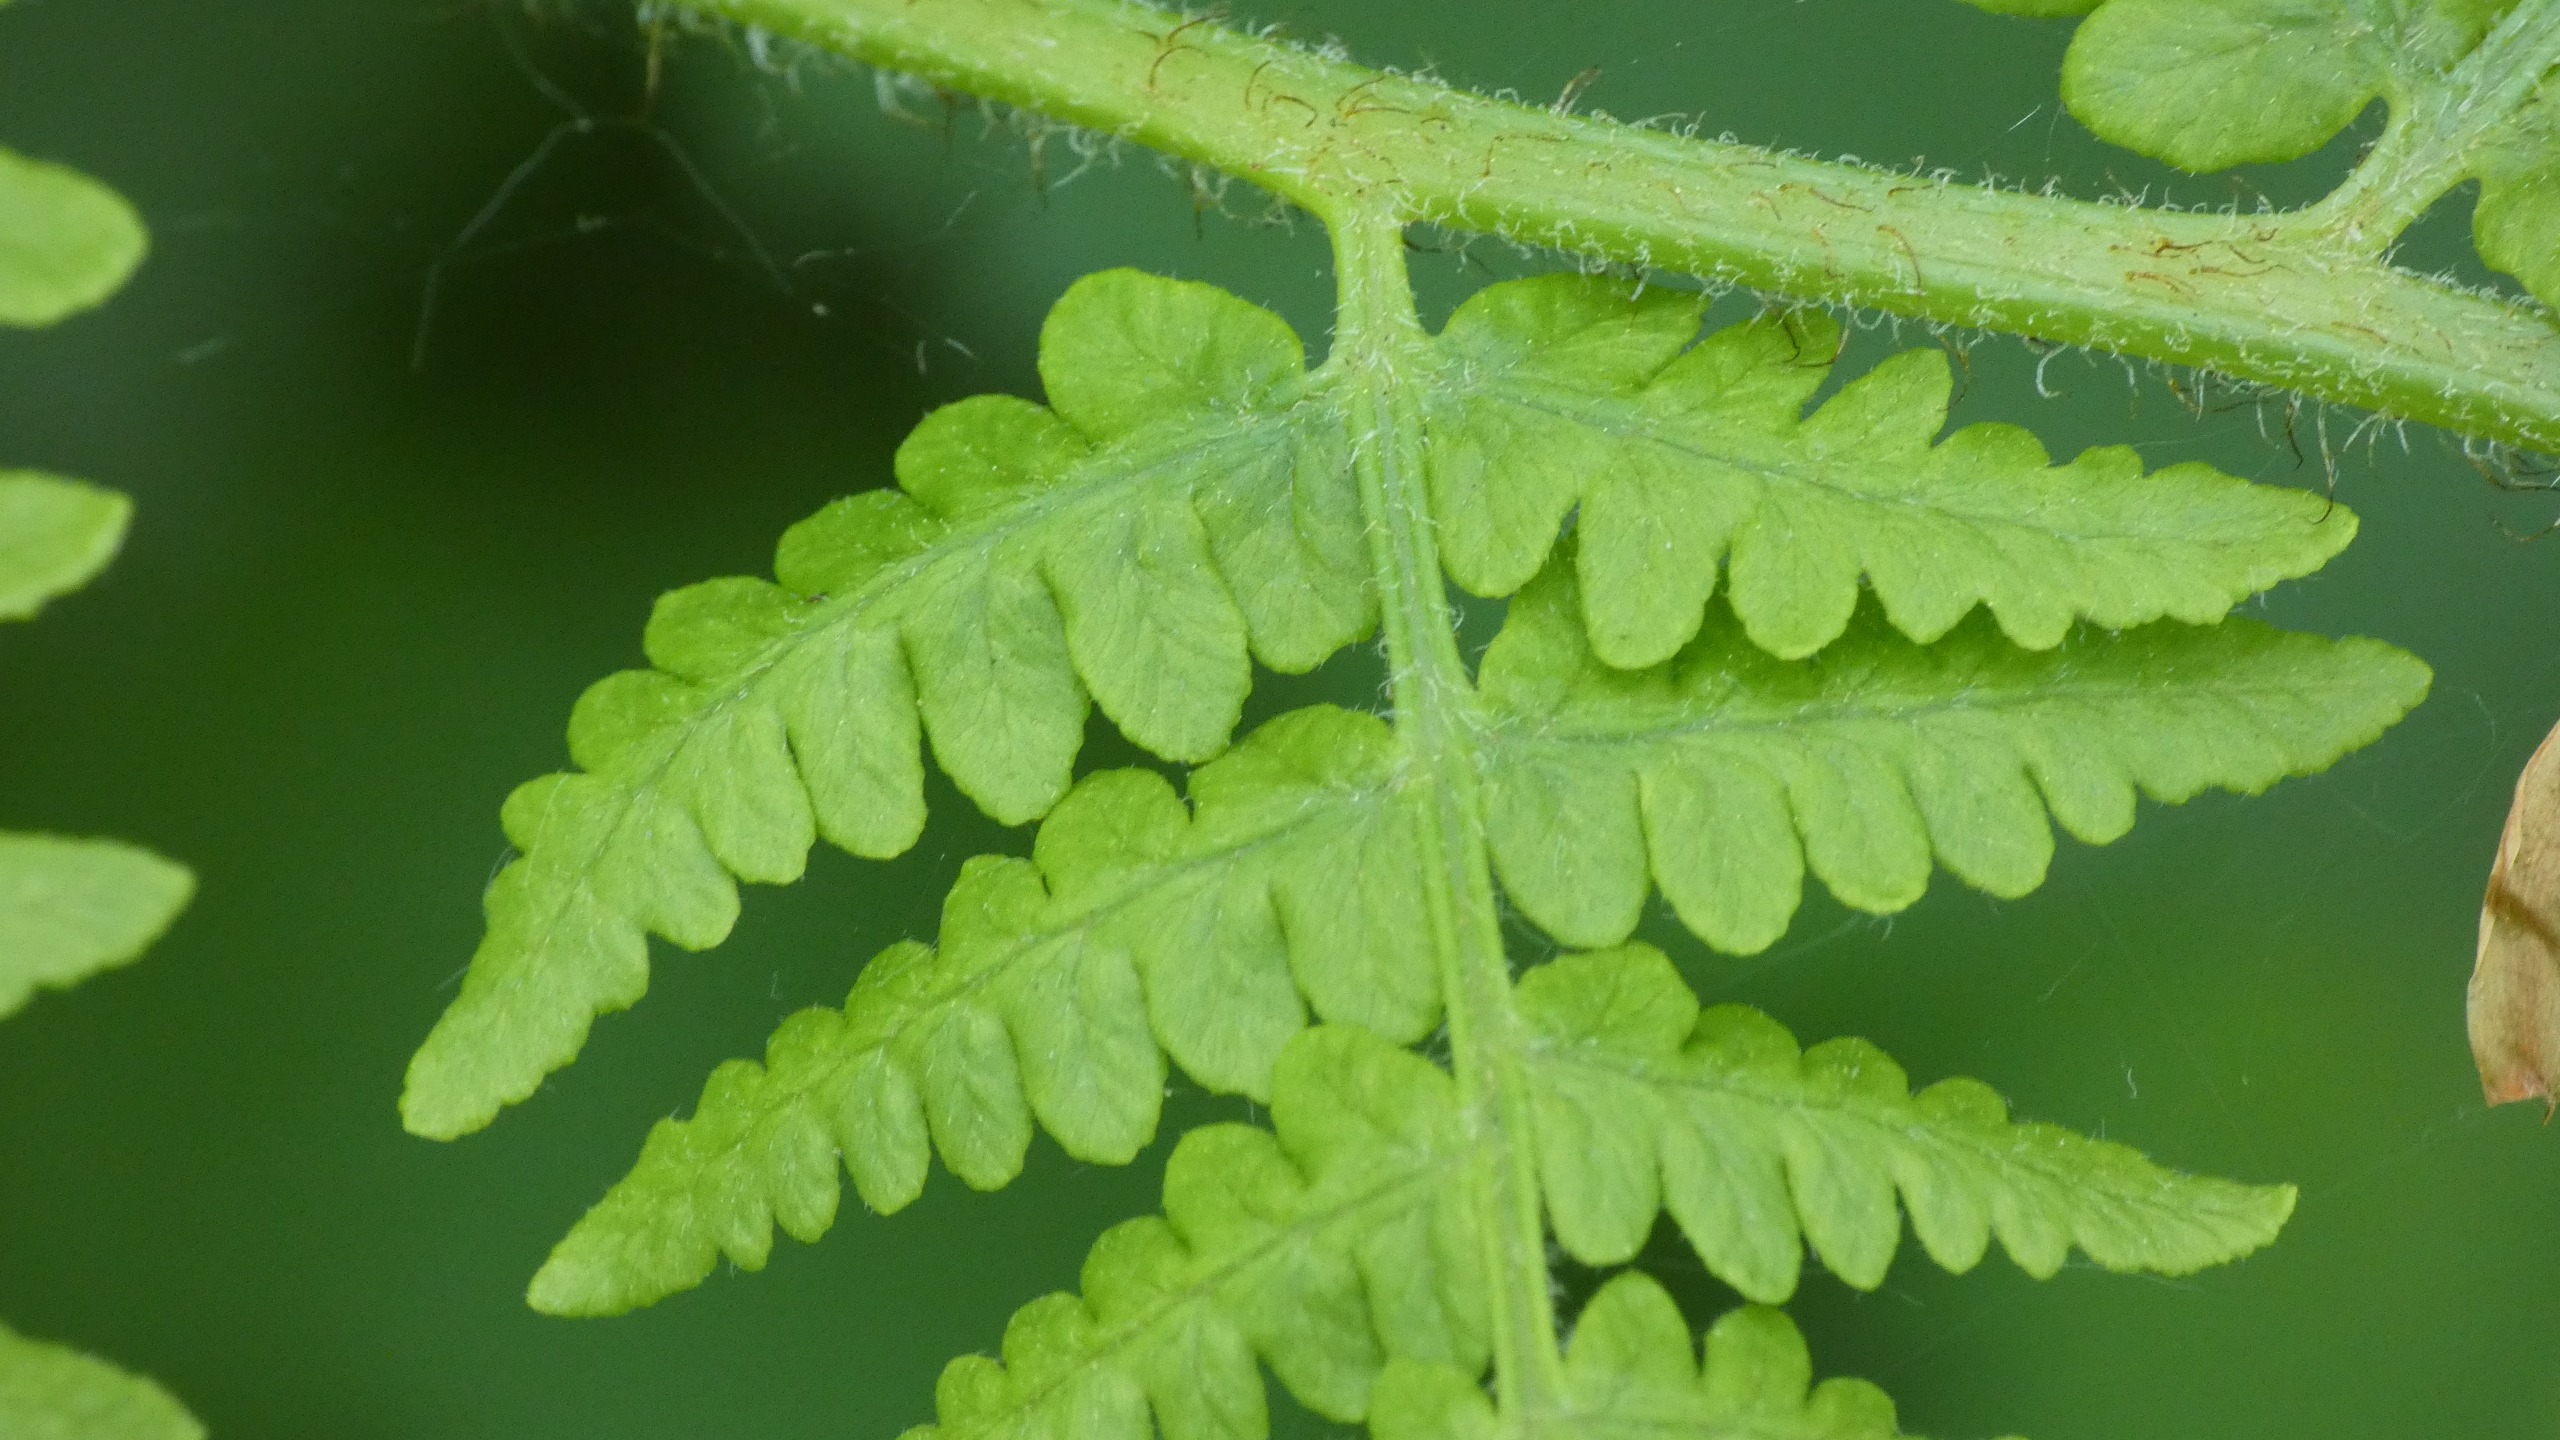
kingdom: Plantae
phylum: Tracheophyta
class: Polypodiopsida
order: Polypodiales
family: Dennstaedtiaceae
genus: Pteridium
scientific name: Pteridium aquilinum
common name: Ørnebregne
